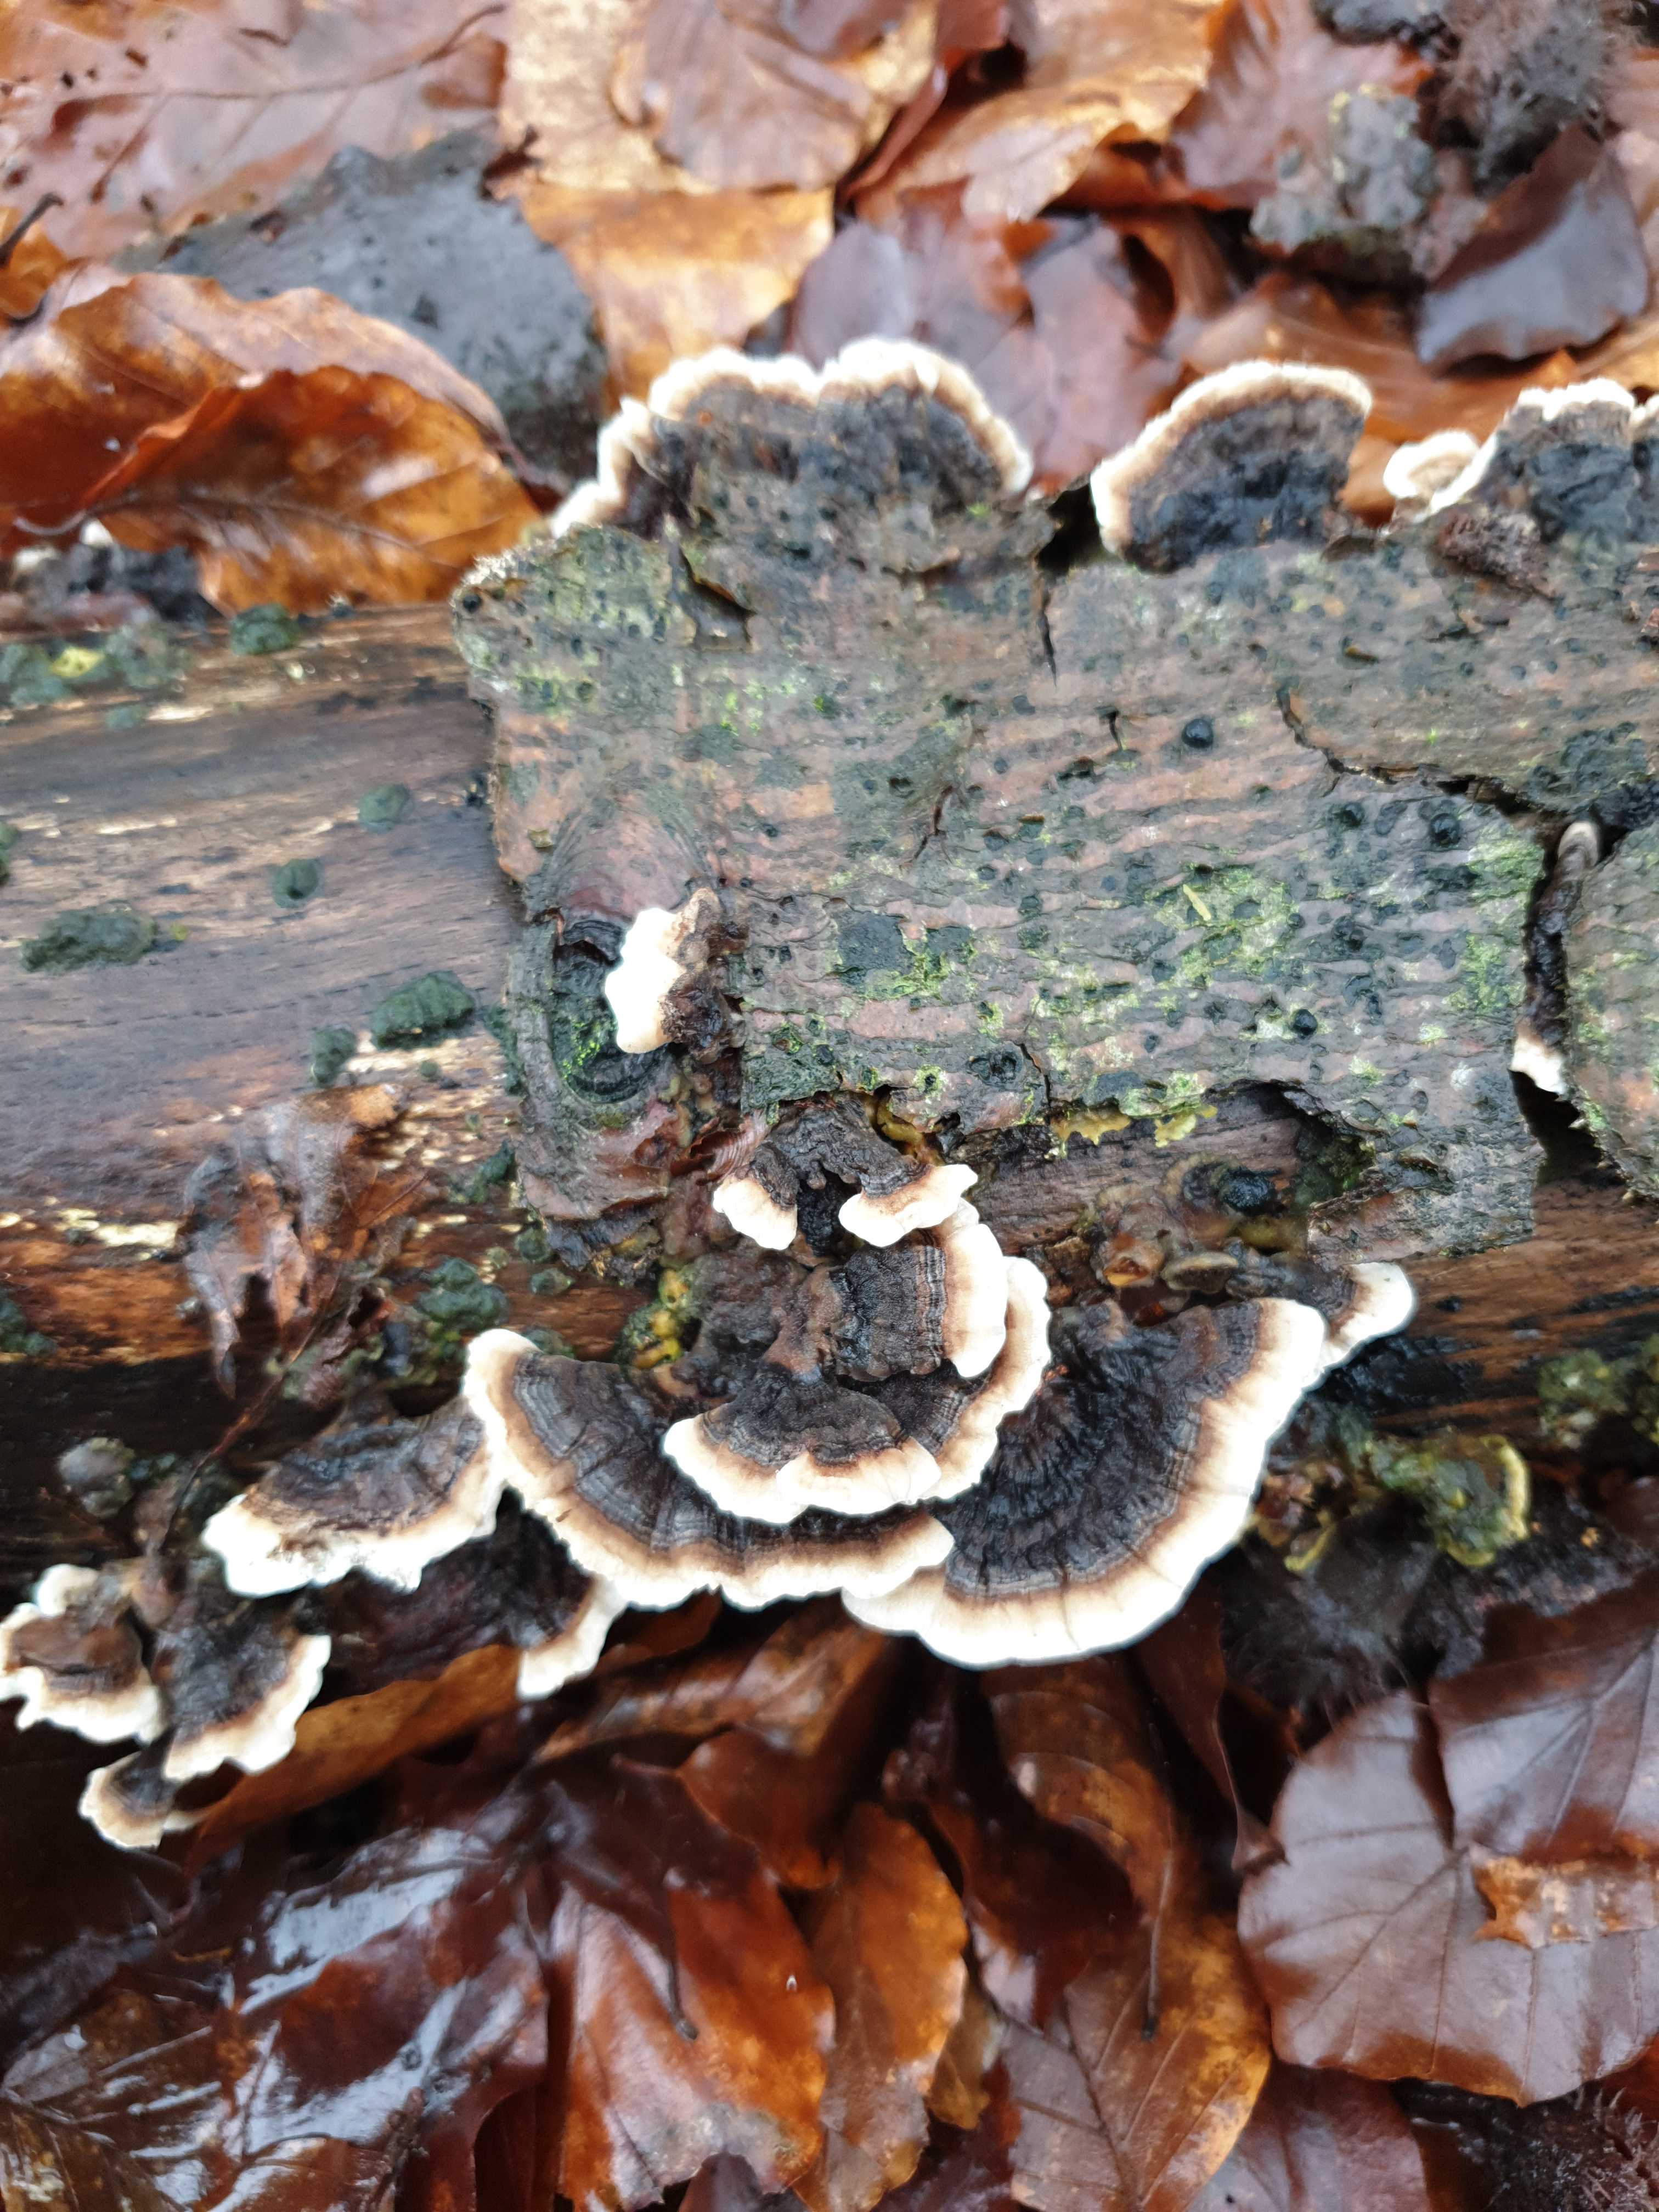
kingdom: Fungi
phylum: Basidiomycota
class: Agaricomycetes
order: Polyporales
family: Polyporaceae
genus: Trametes
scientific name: Trametes versicolor
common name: broget læderporesvamp
